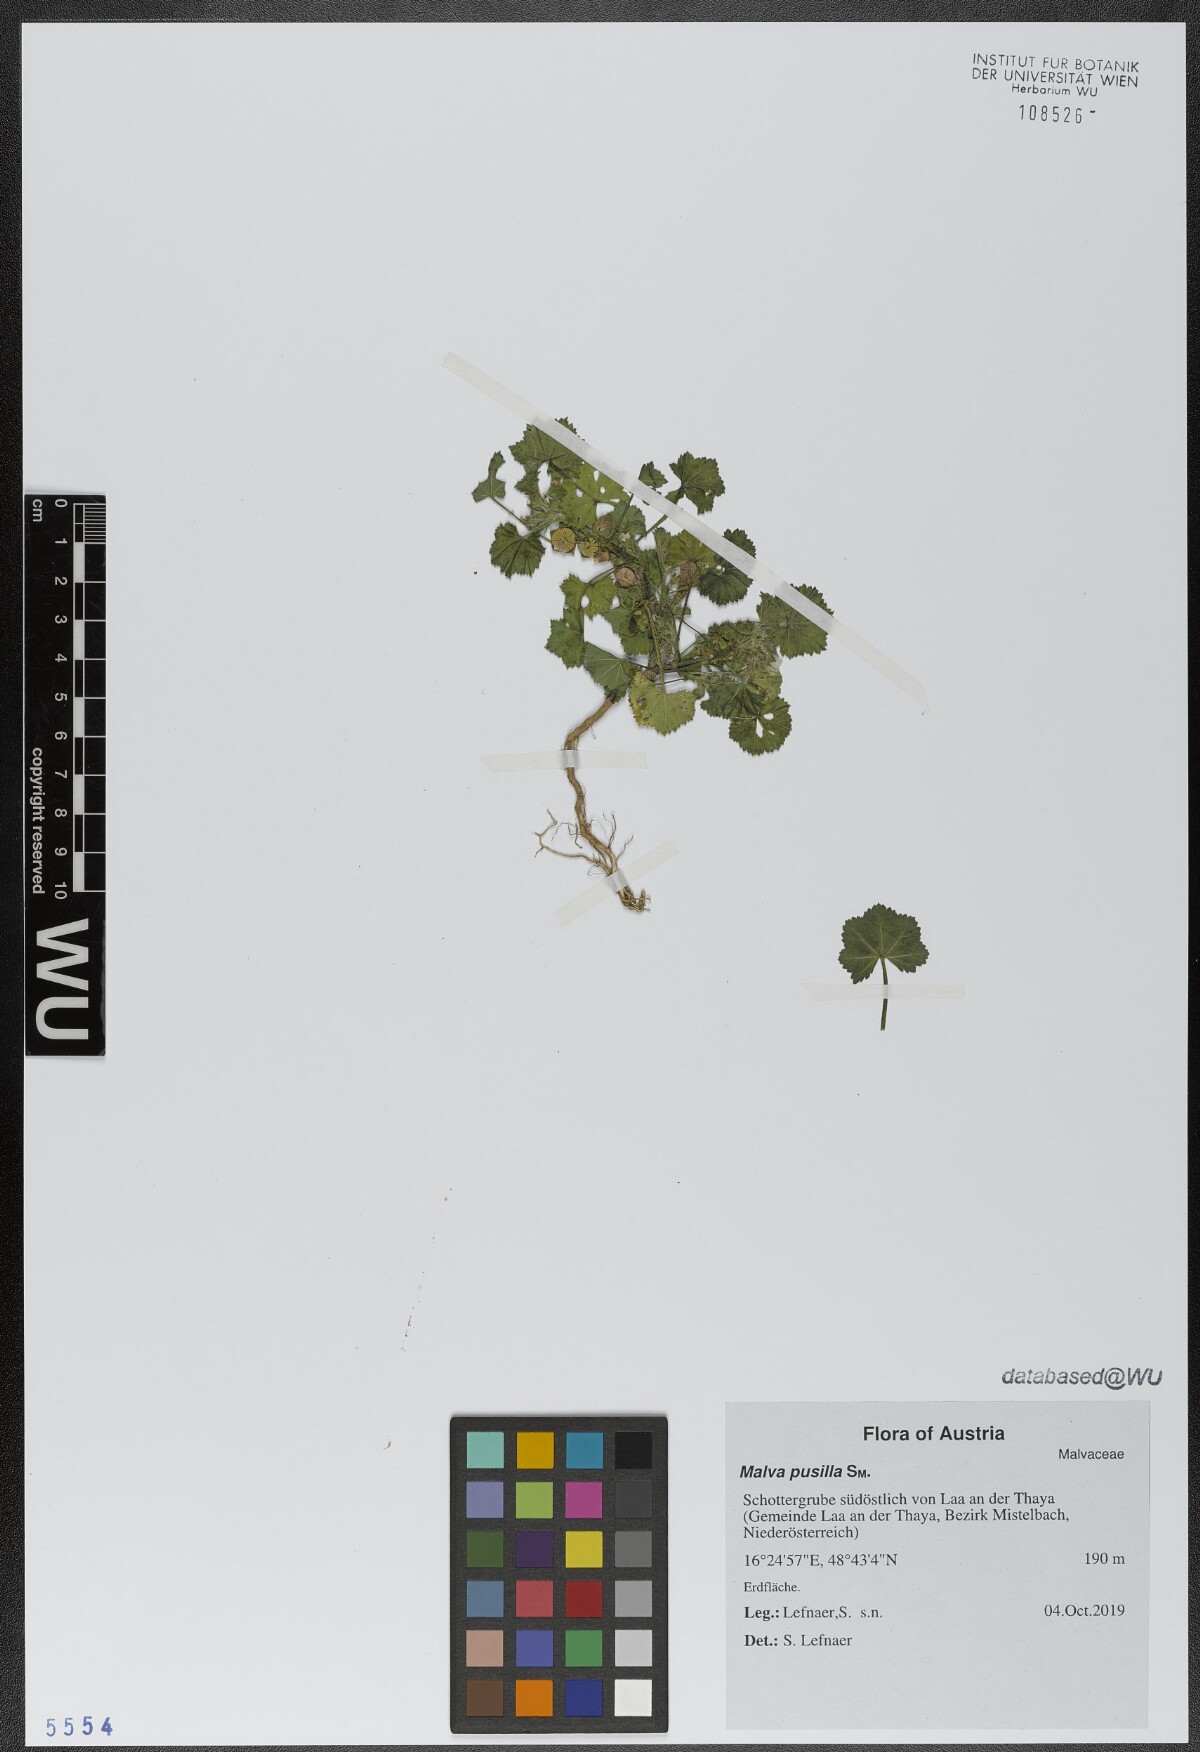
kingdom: Plantae
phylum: Tracheophyta
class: Magnoliopsida
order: Malvales
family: Malvaceae
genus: Malva
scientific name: Malva pusilla
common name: Small mallow
